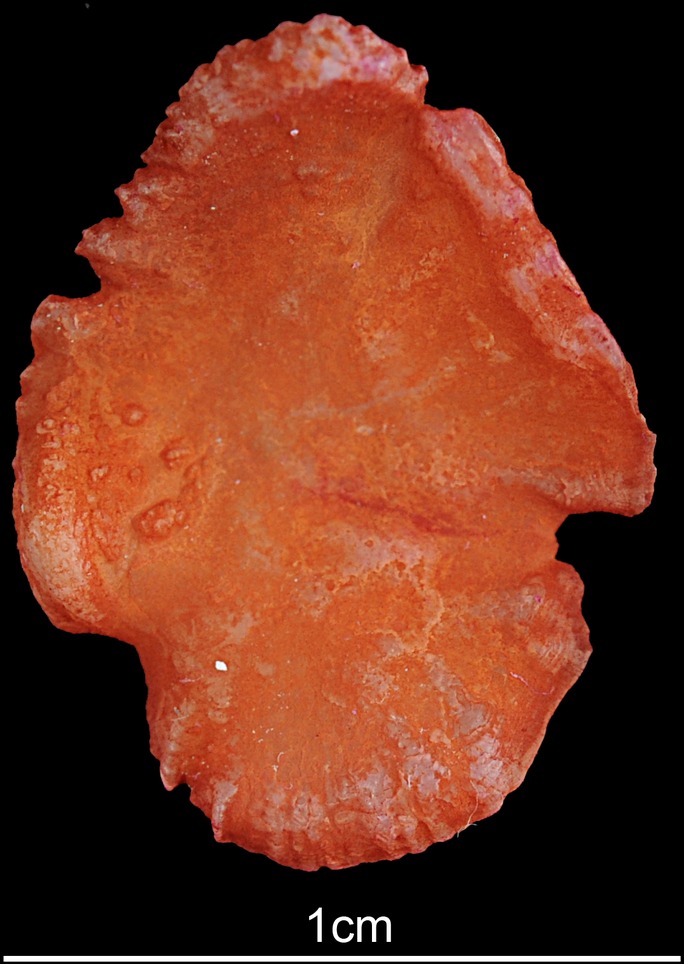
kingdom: Animalia
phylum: Chordata
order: Perciformes
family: Channidae
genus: Parachanna
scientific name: Parachanna africana
